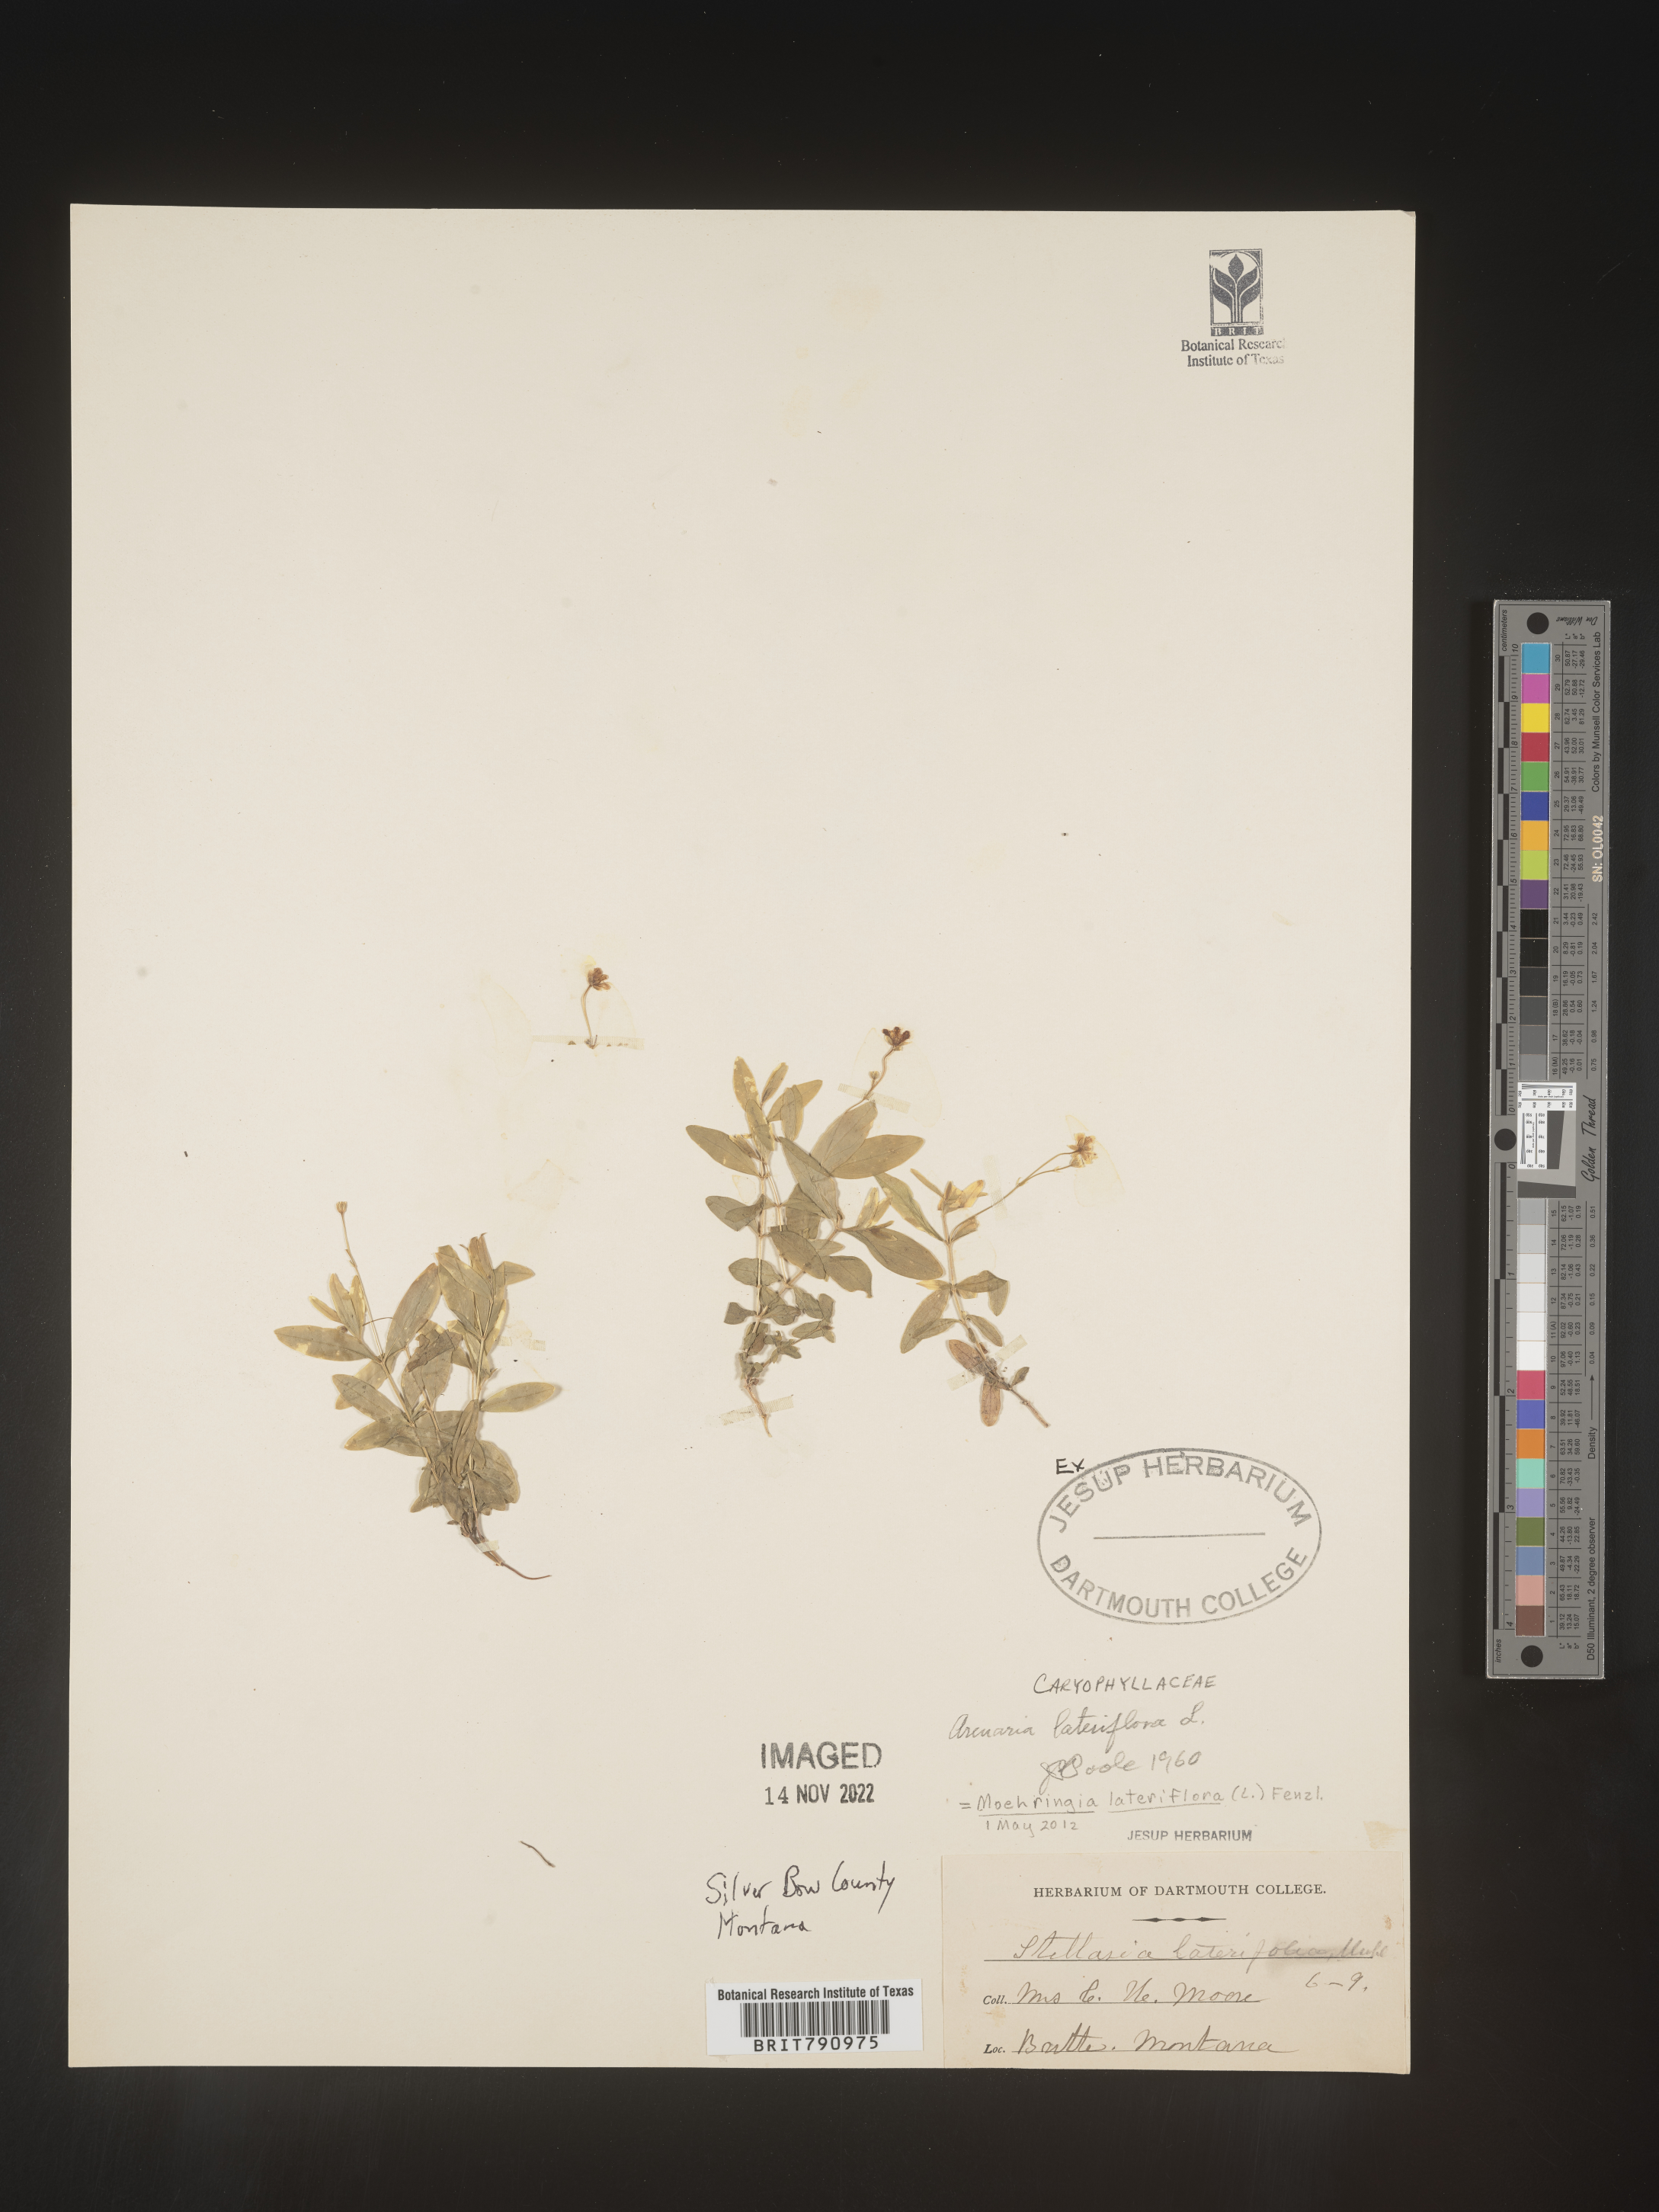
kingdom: Plantae
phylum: Tracheophyta
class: Magnoliopsida
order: Caryophyllales
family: Caryophyllaceae
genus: Moehringia
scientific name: Moehringia
